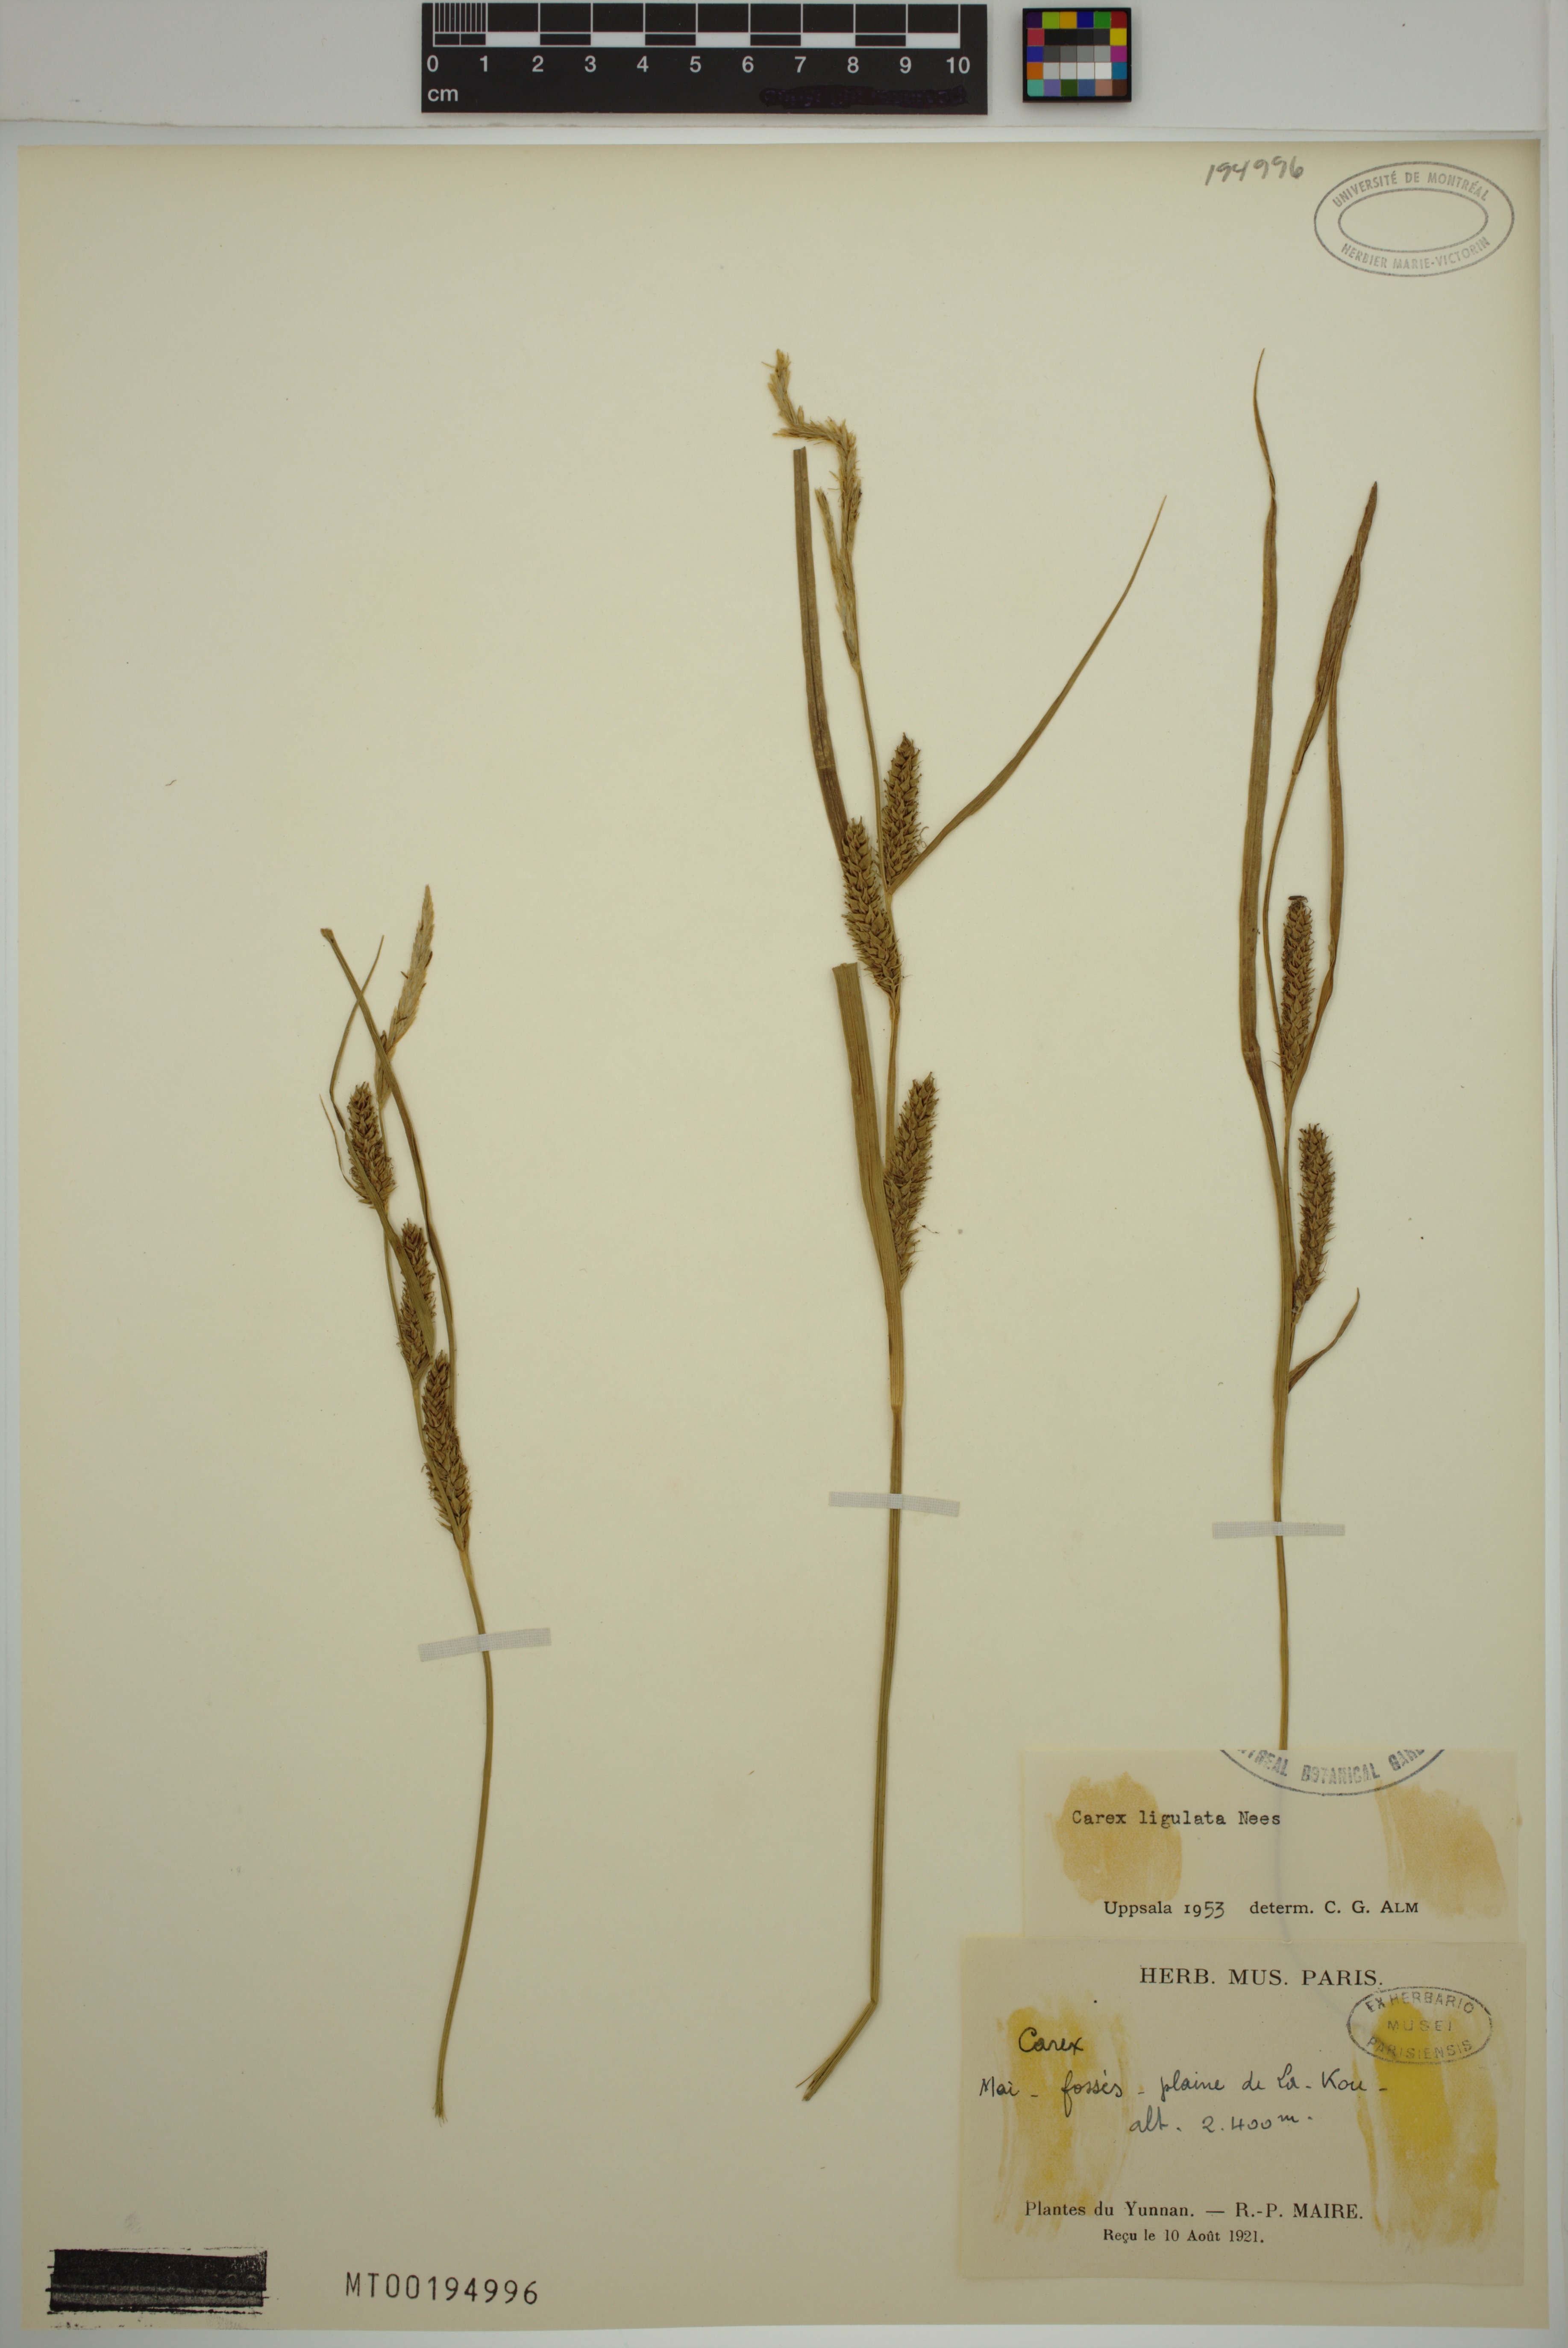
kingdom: Plantae
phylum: Tracheophyta
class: Liliopsida
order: Poales
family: Cyperaceae
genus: Carex
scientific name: Carex ligulata
